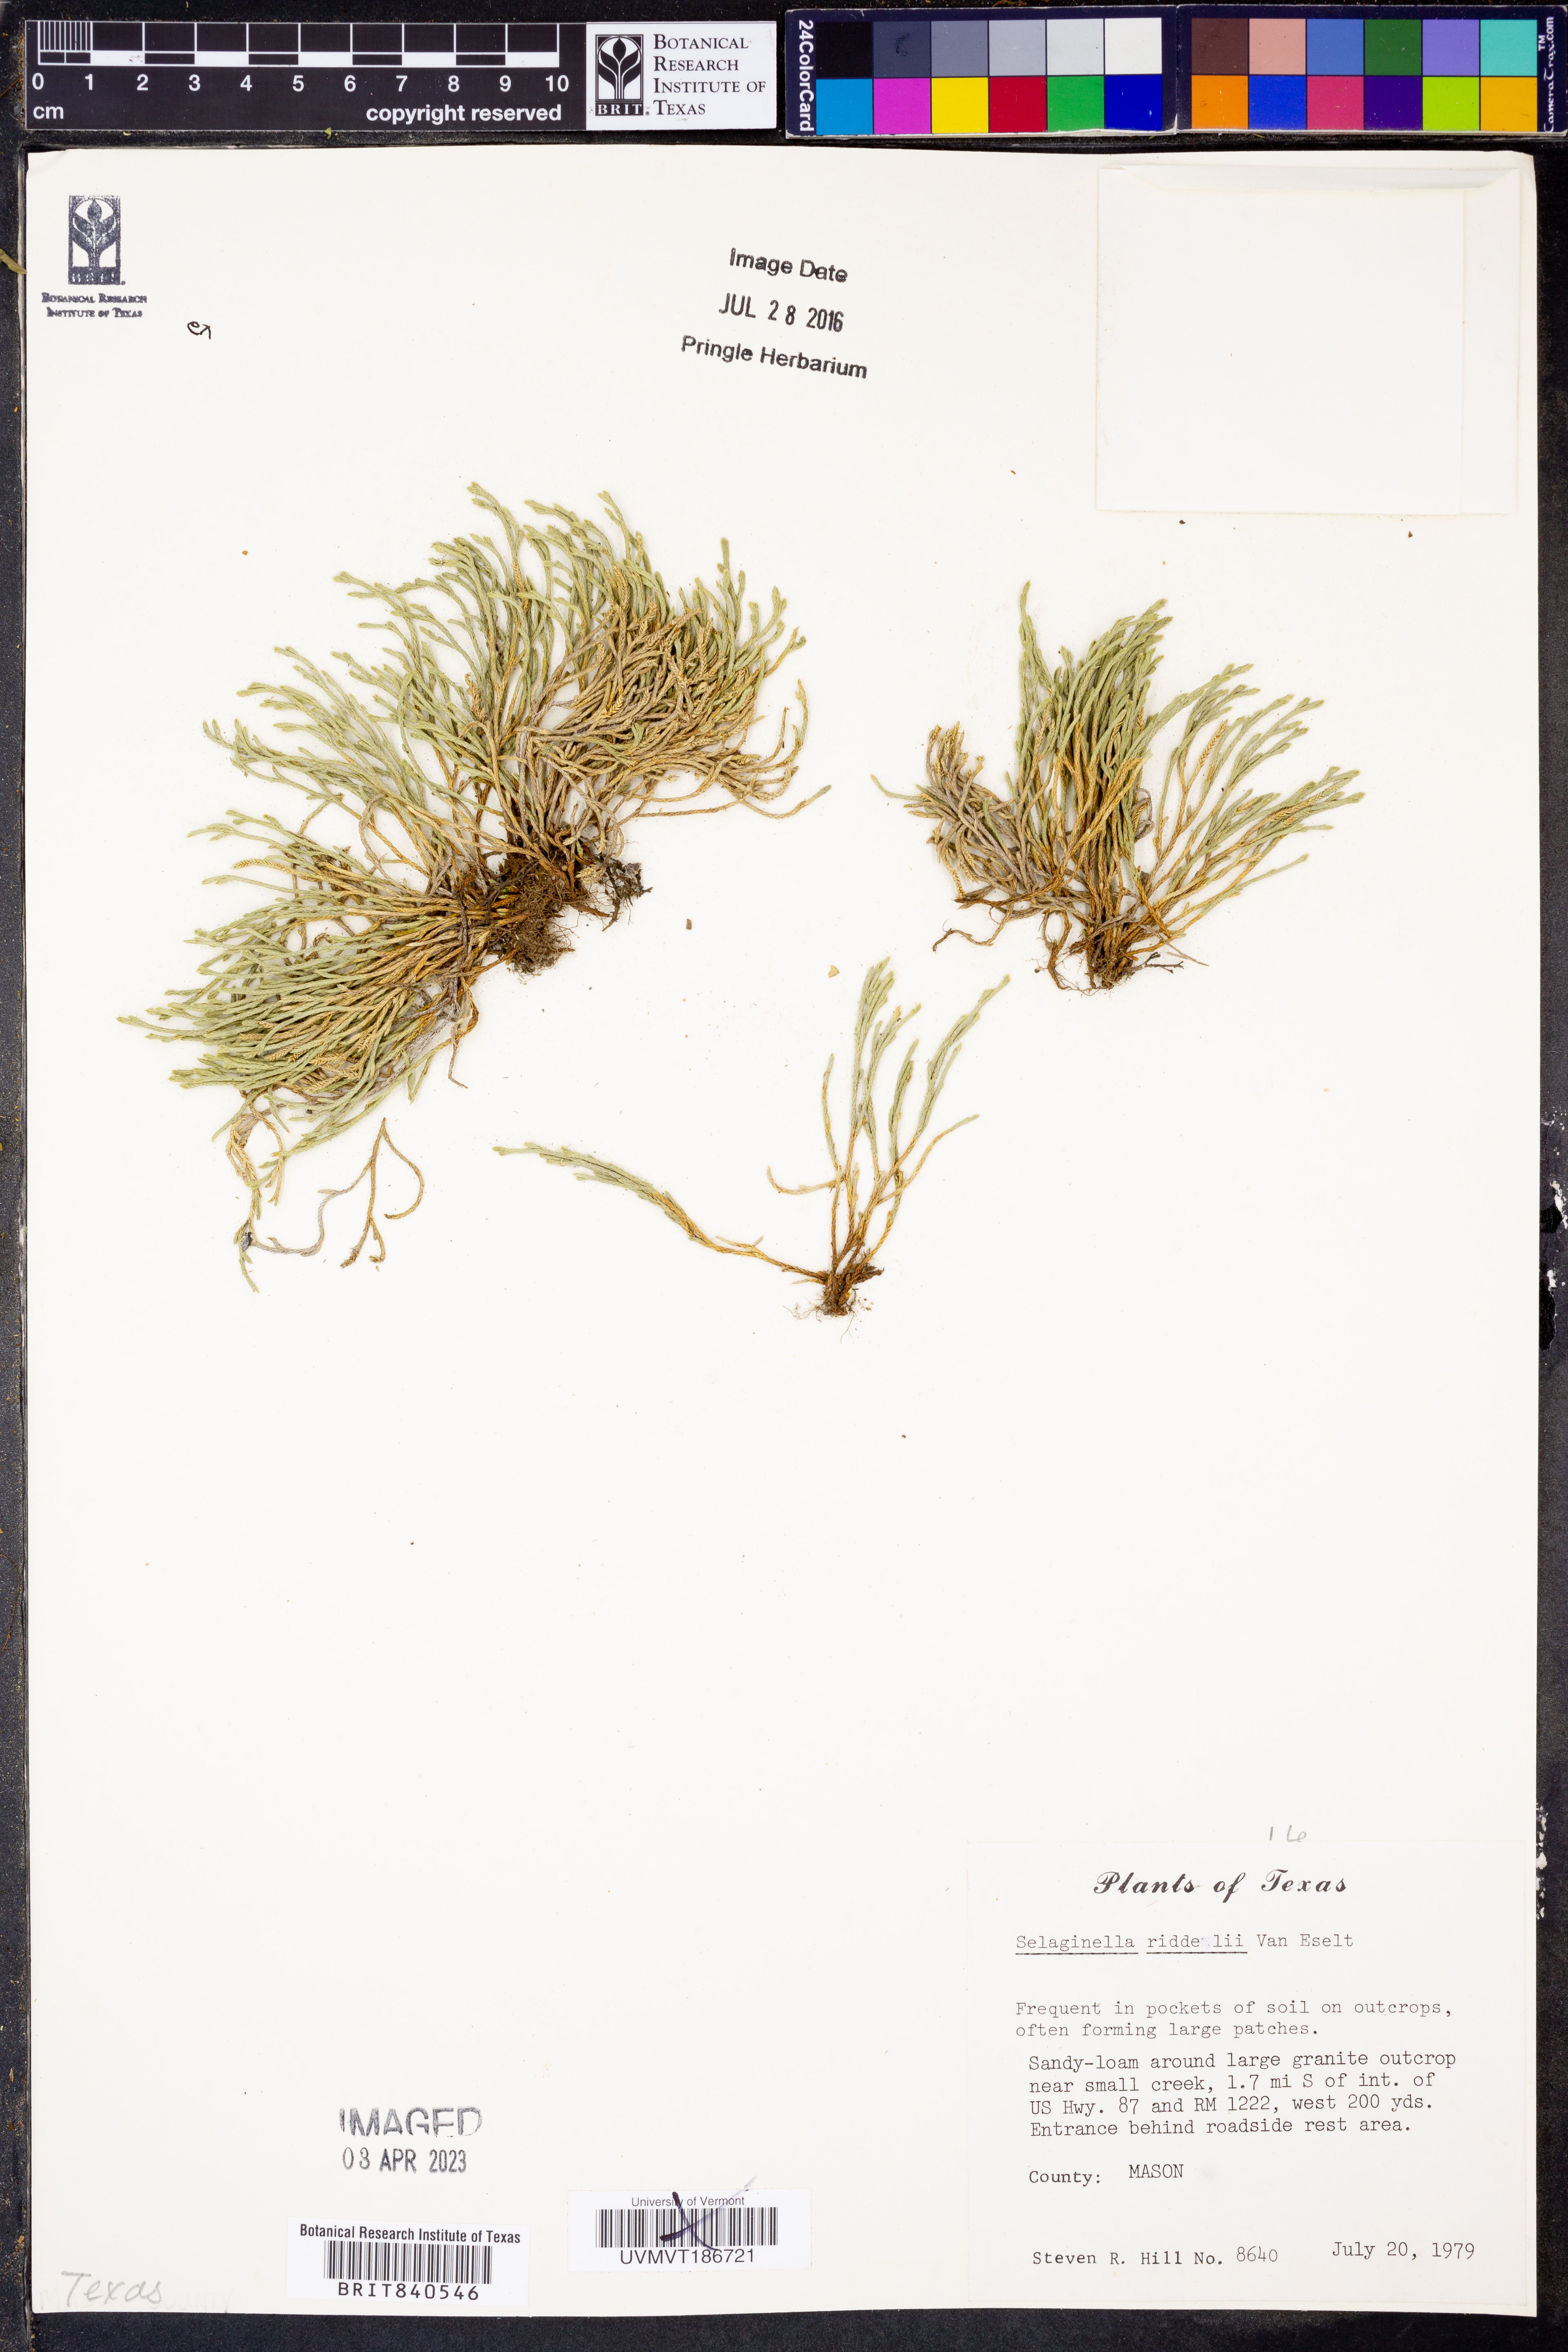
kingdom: Plantae
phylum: Tracheophyta
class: Lycopodiopsida
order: Selaginellales
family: Selaginellaceae
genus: Selaginella
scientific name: Selaginella corallina
